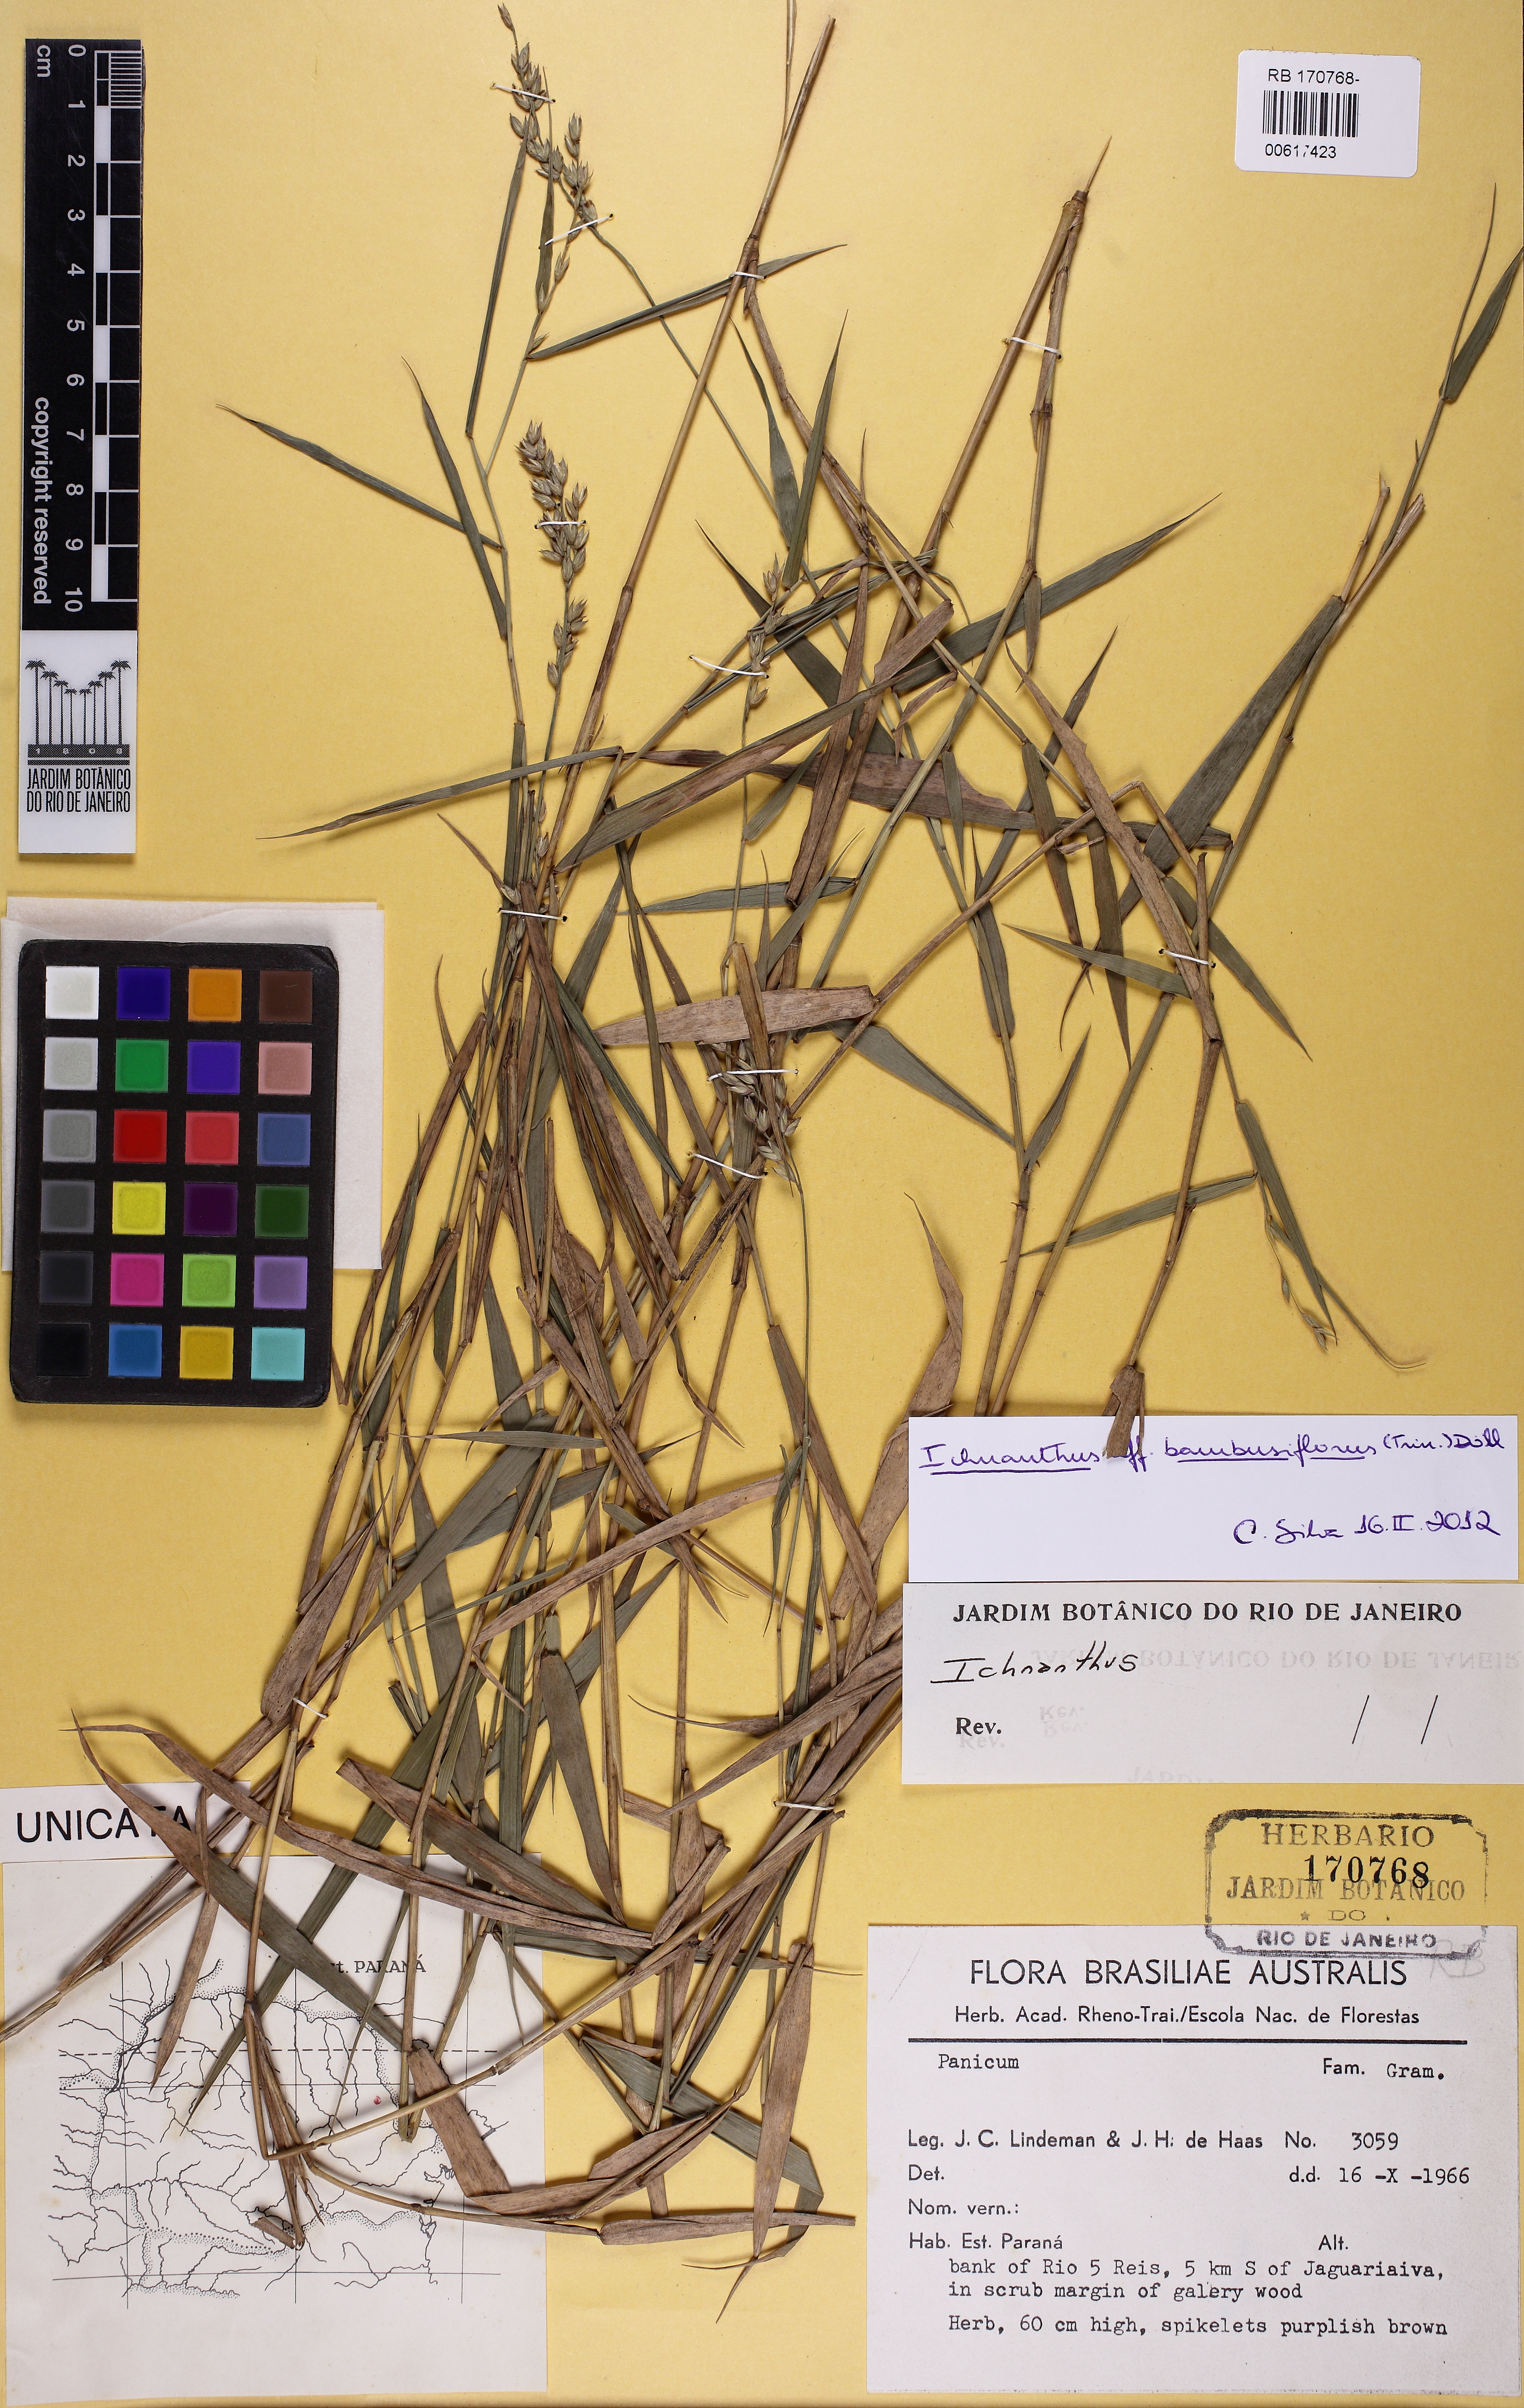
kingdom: Plantae
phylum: Tracheophyta
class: Liliopsida
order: Poales
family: Poaceae
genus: Ichnanthus
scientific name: Ichnanthus bambusiflorus
